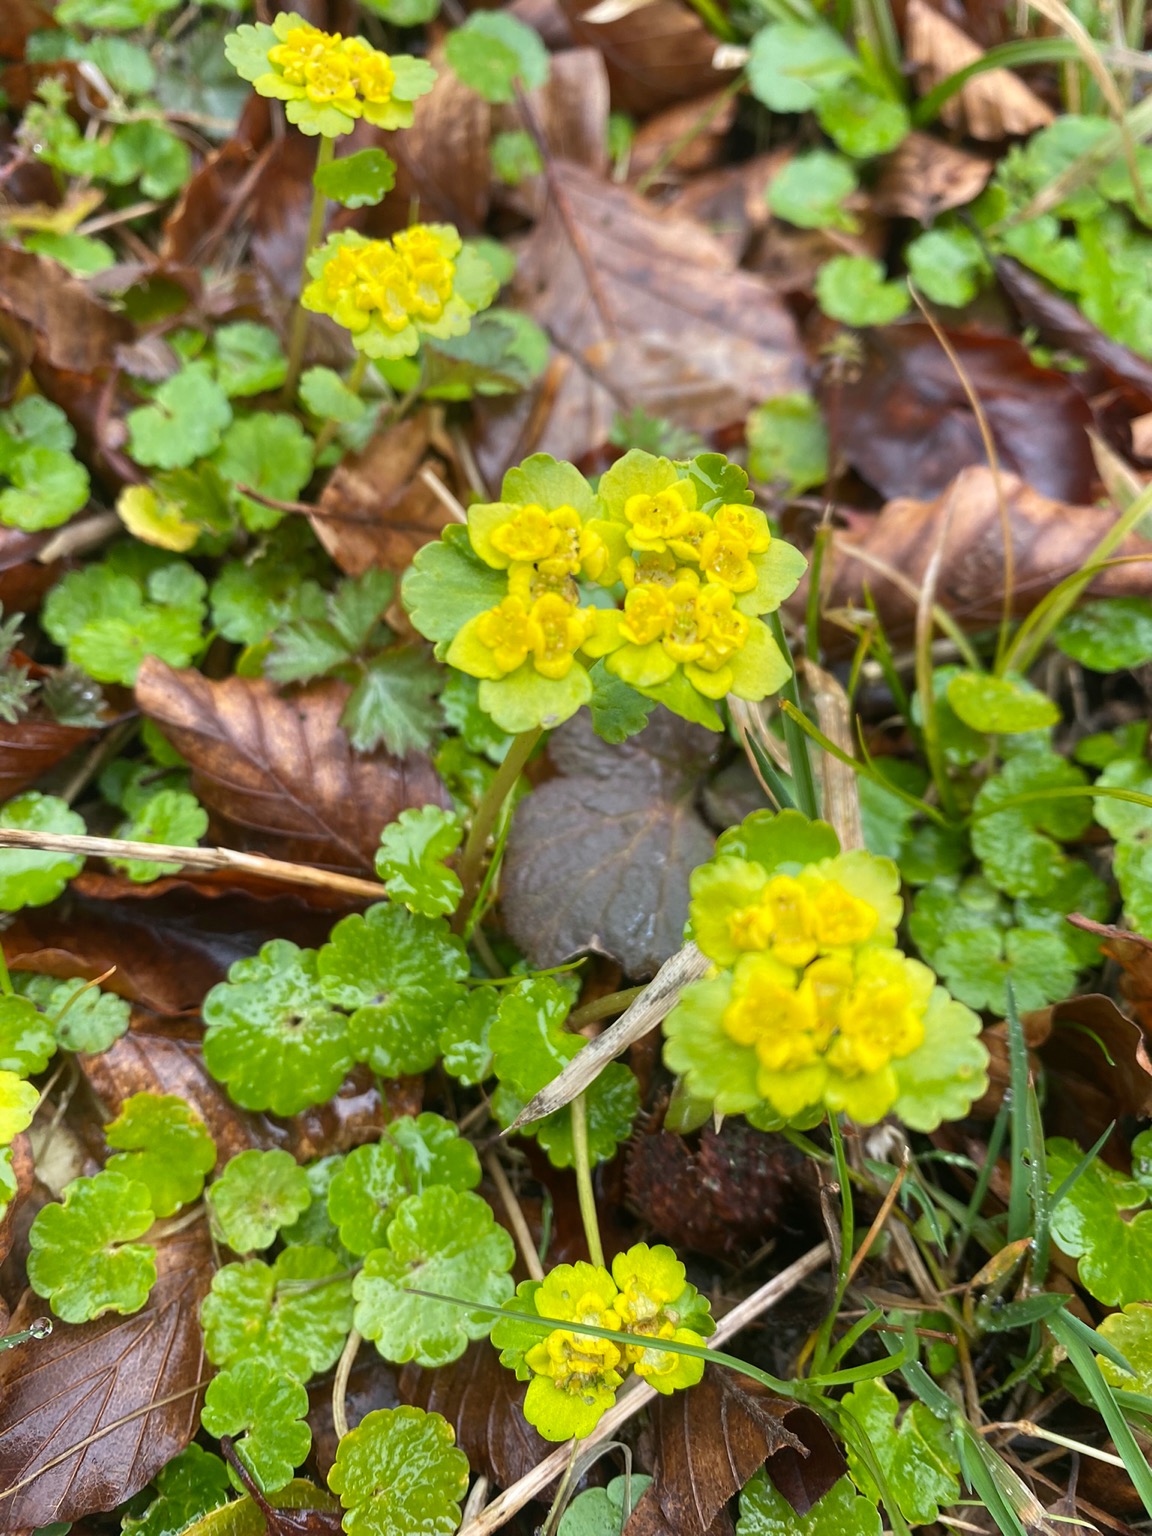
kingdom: Plantae
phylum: Tracheophyta
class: Magnoliopsida
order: Saxifragales
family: Saxifragaceae
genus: Chrysosplenium
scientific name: Chrysosplenium alternifolium
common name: Almindelig milturt
